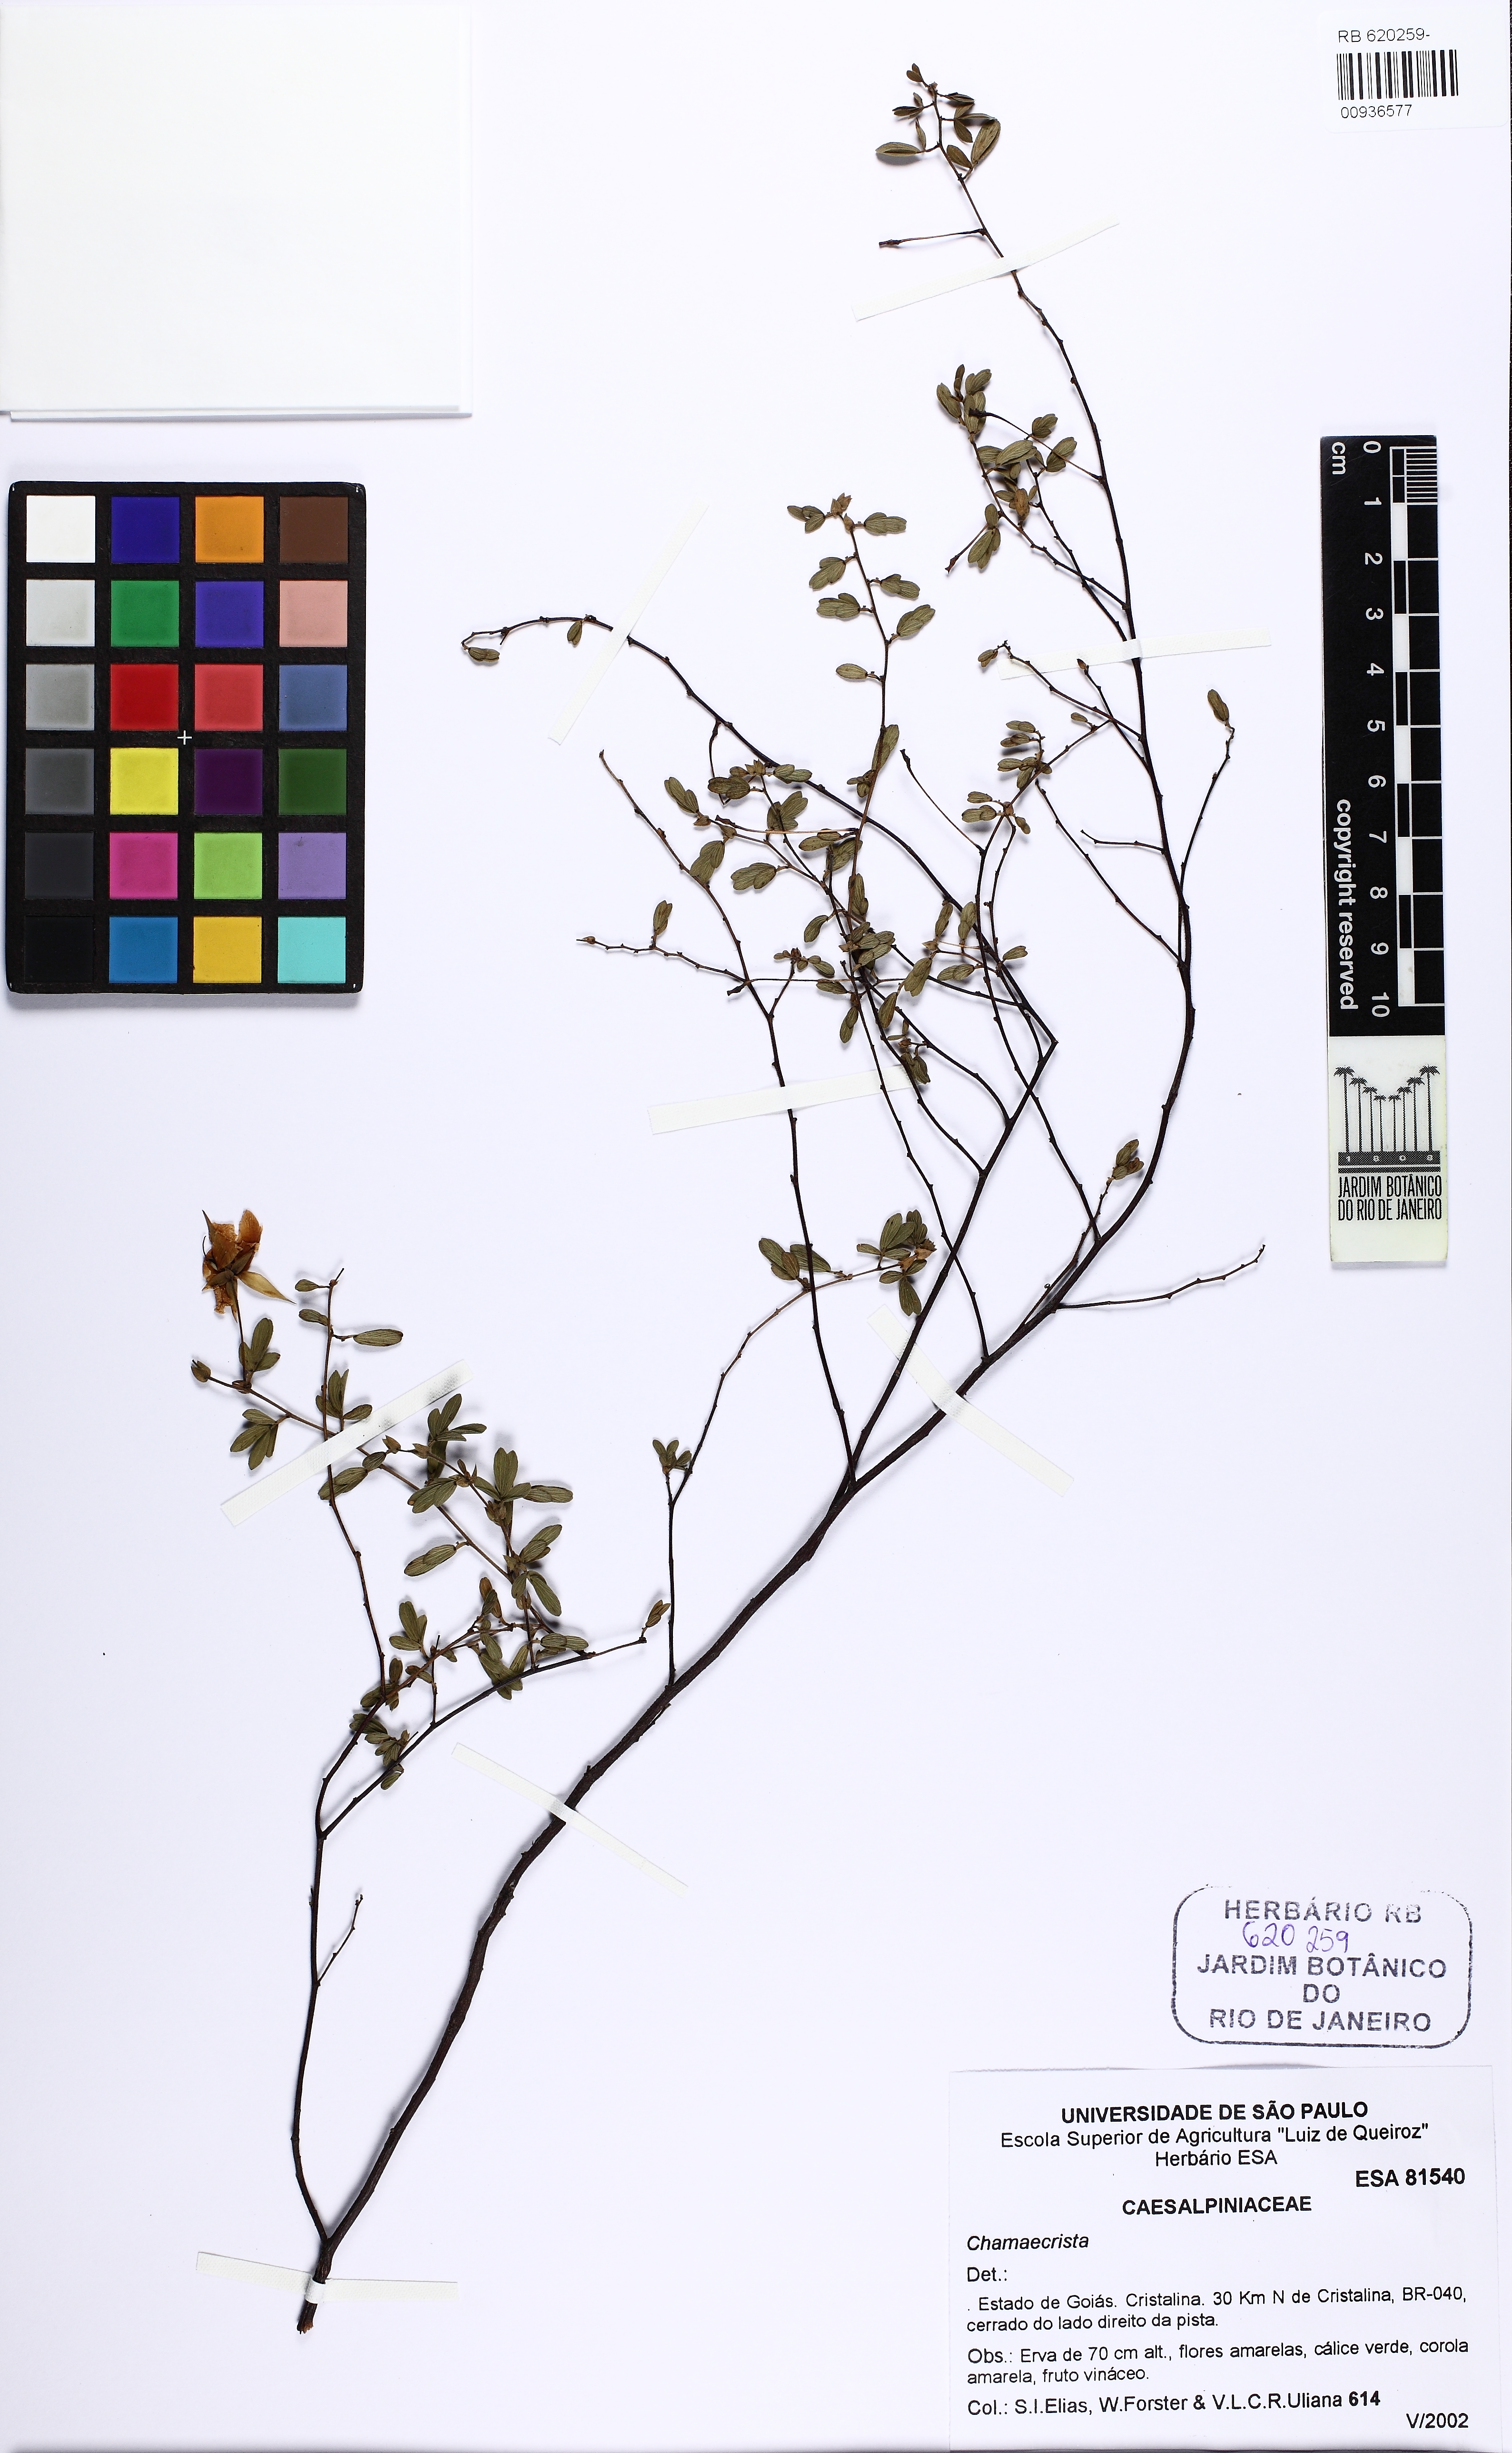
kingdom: Plantae
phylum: Tracheophyta
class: Magnoliopsida
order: Fabales
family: Fabaceae
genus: Chamaecrista
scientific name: Chamaecrista
